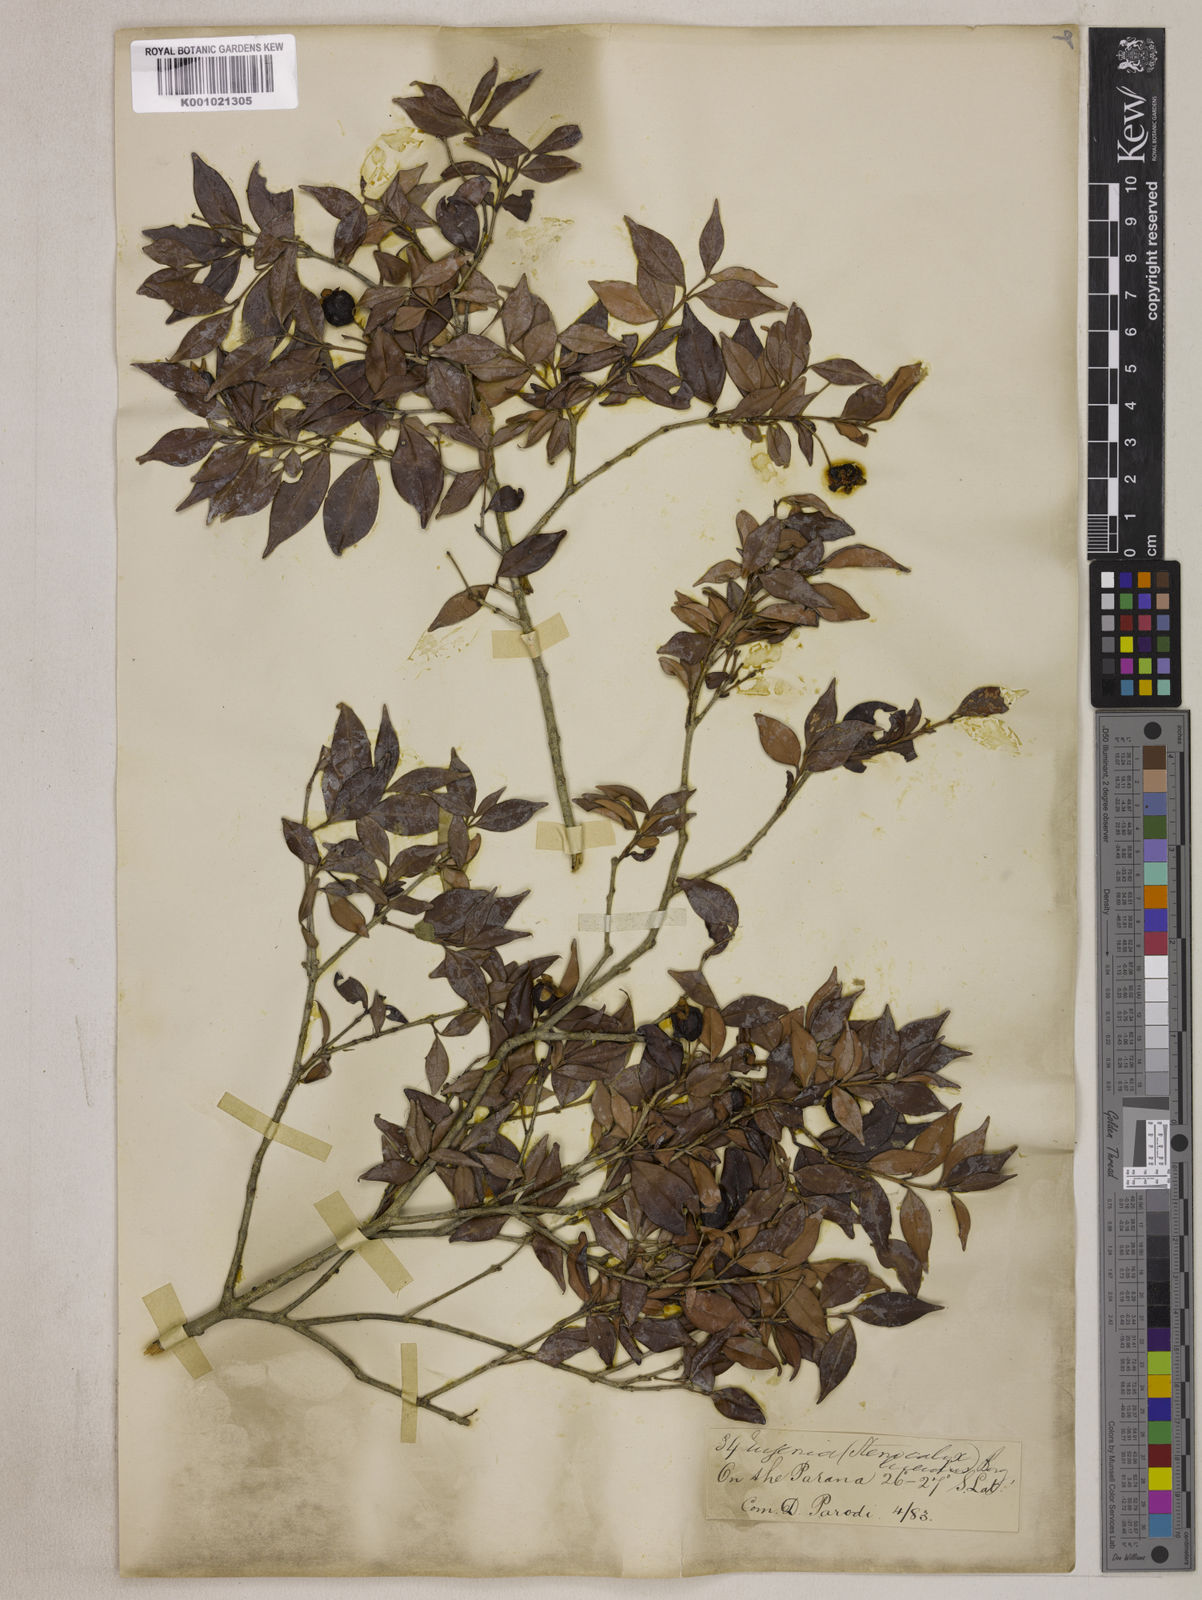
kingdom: Plantae
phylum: Tracheophyta
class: Magnoliopsida
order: Myrtales
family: Myrtaceae
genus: Eugenia
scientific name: Eugenia uniflora
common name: Surinam cherry
